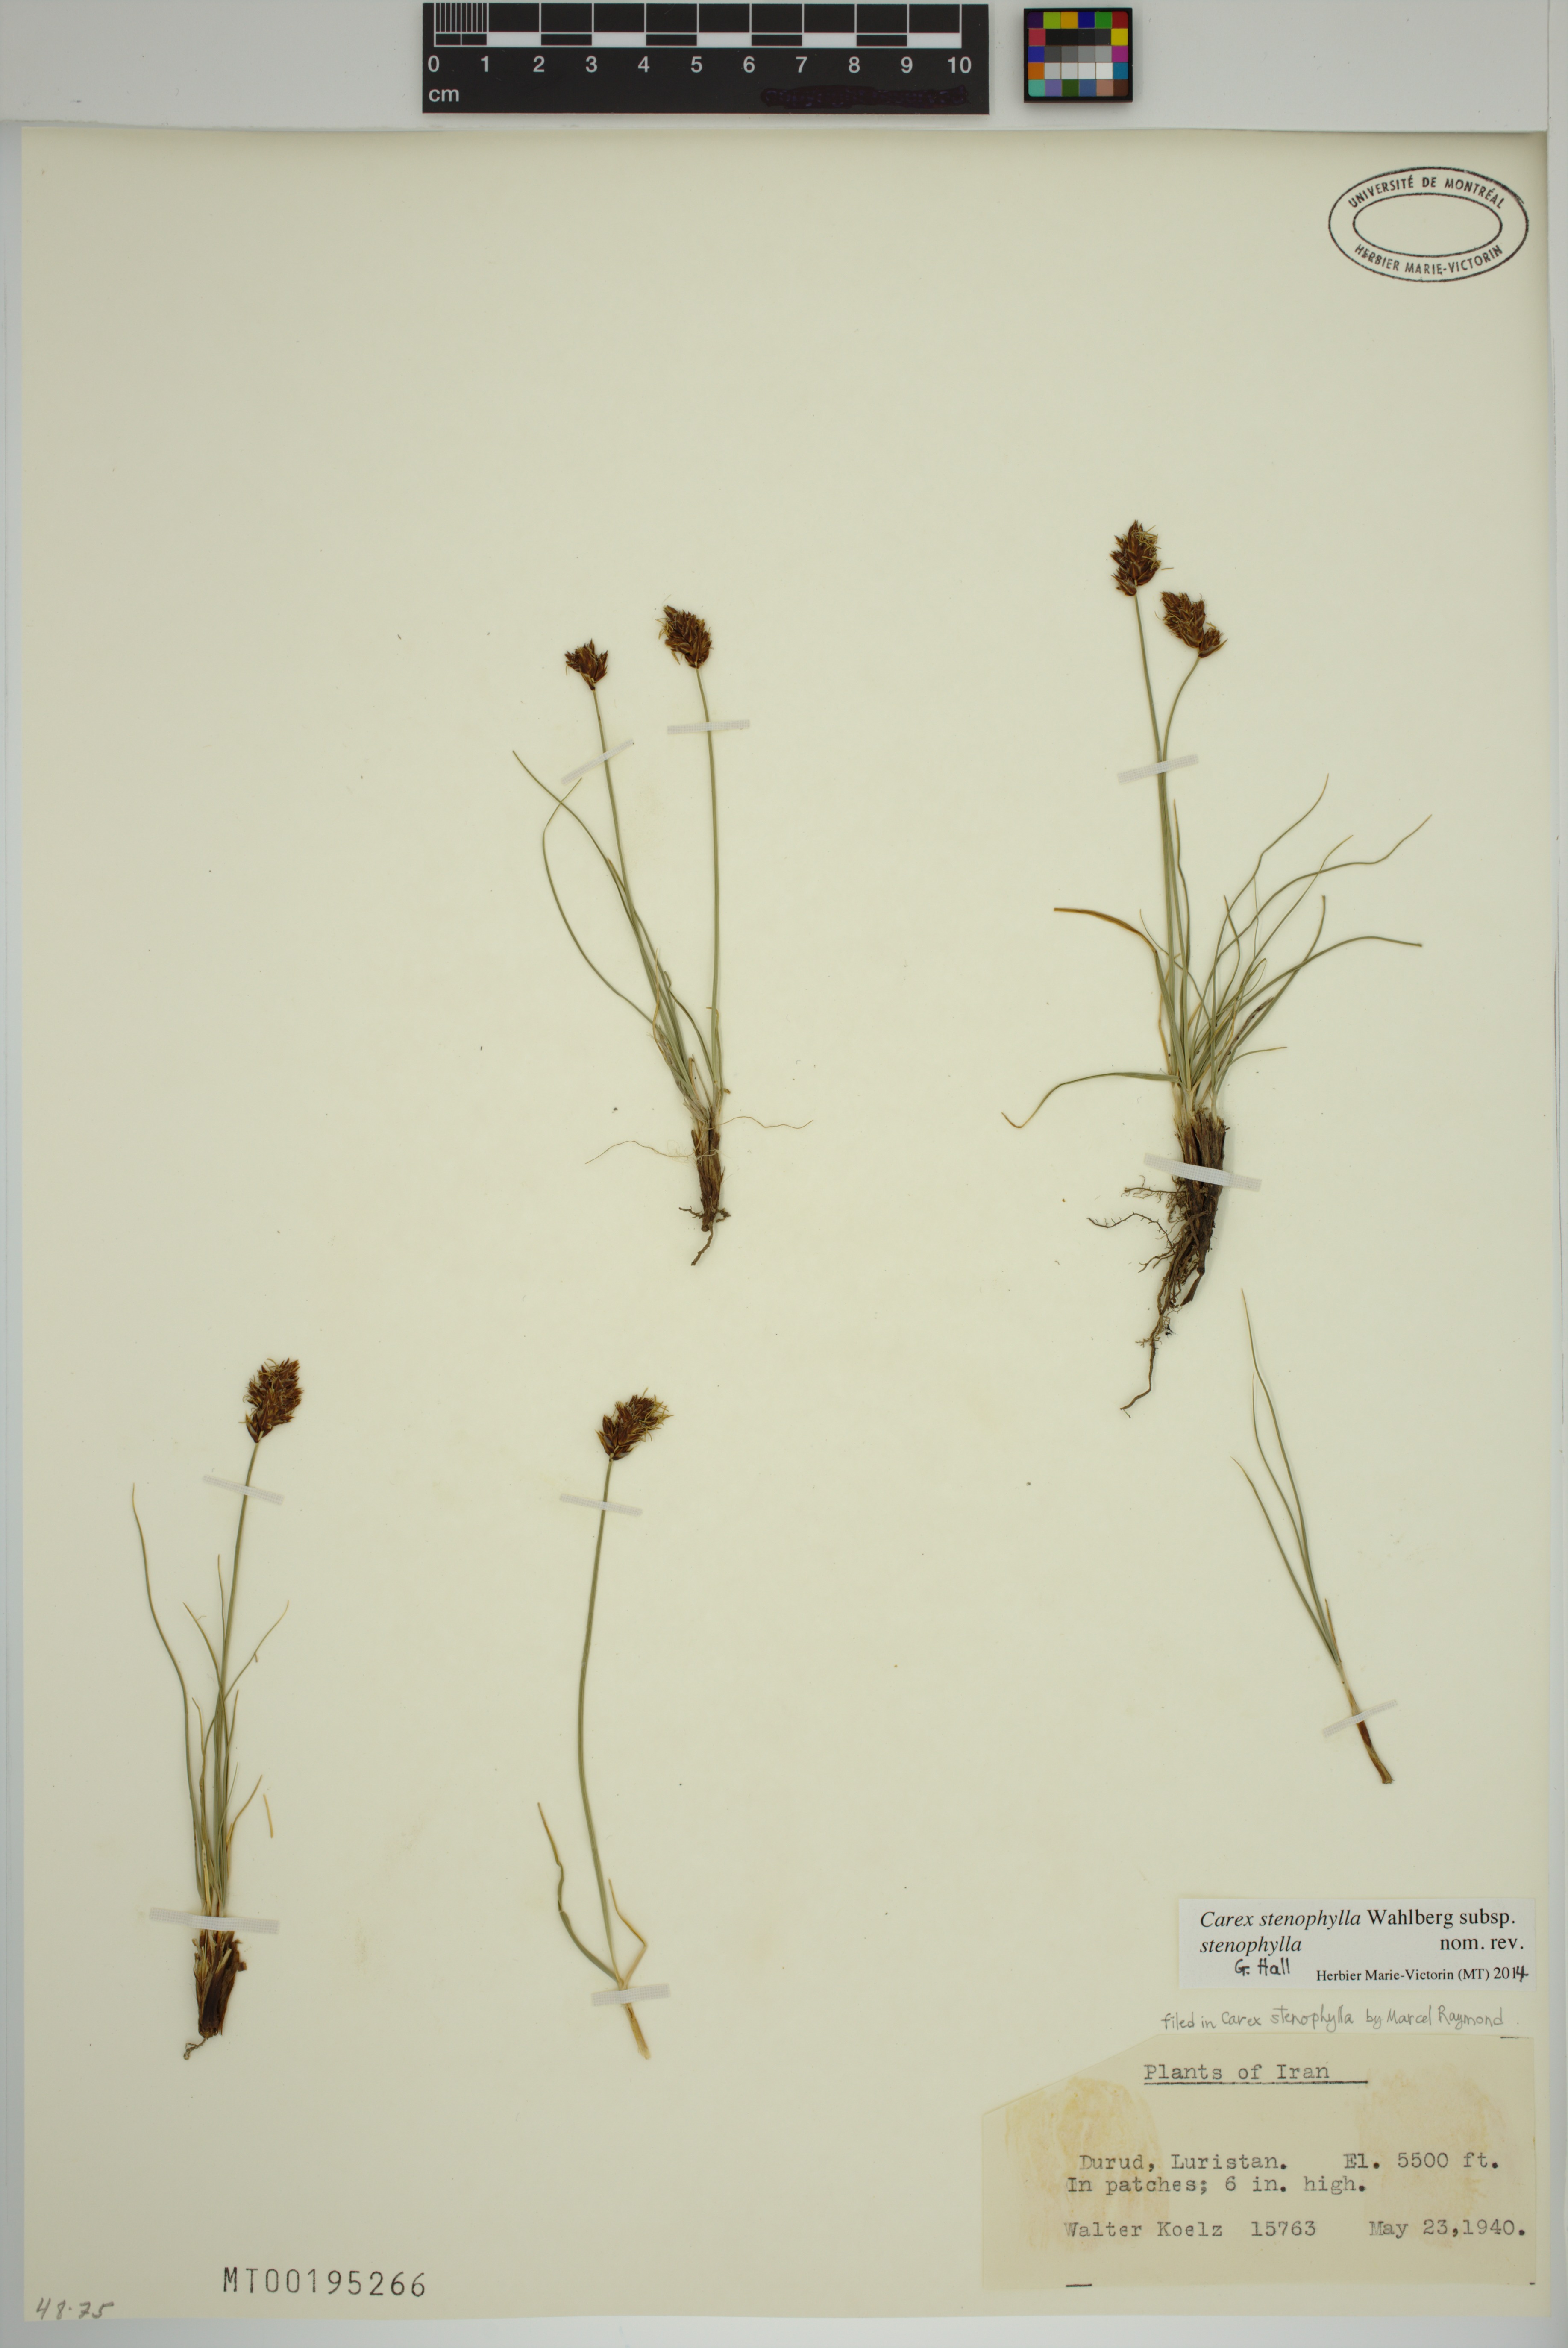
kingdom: Plantae
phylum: Tracheophyta
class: Liliopsida
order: Poales
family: Cyperaceae
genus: Carex
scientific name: Carex stenophylla
